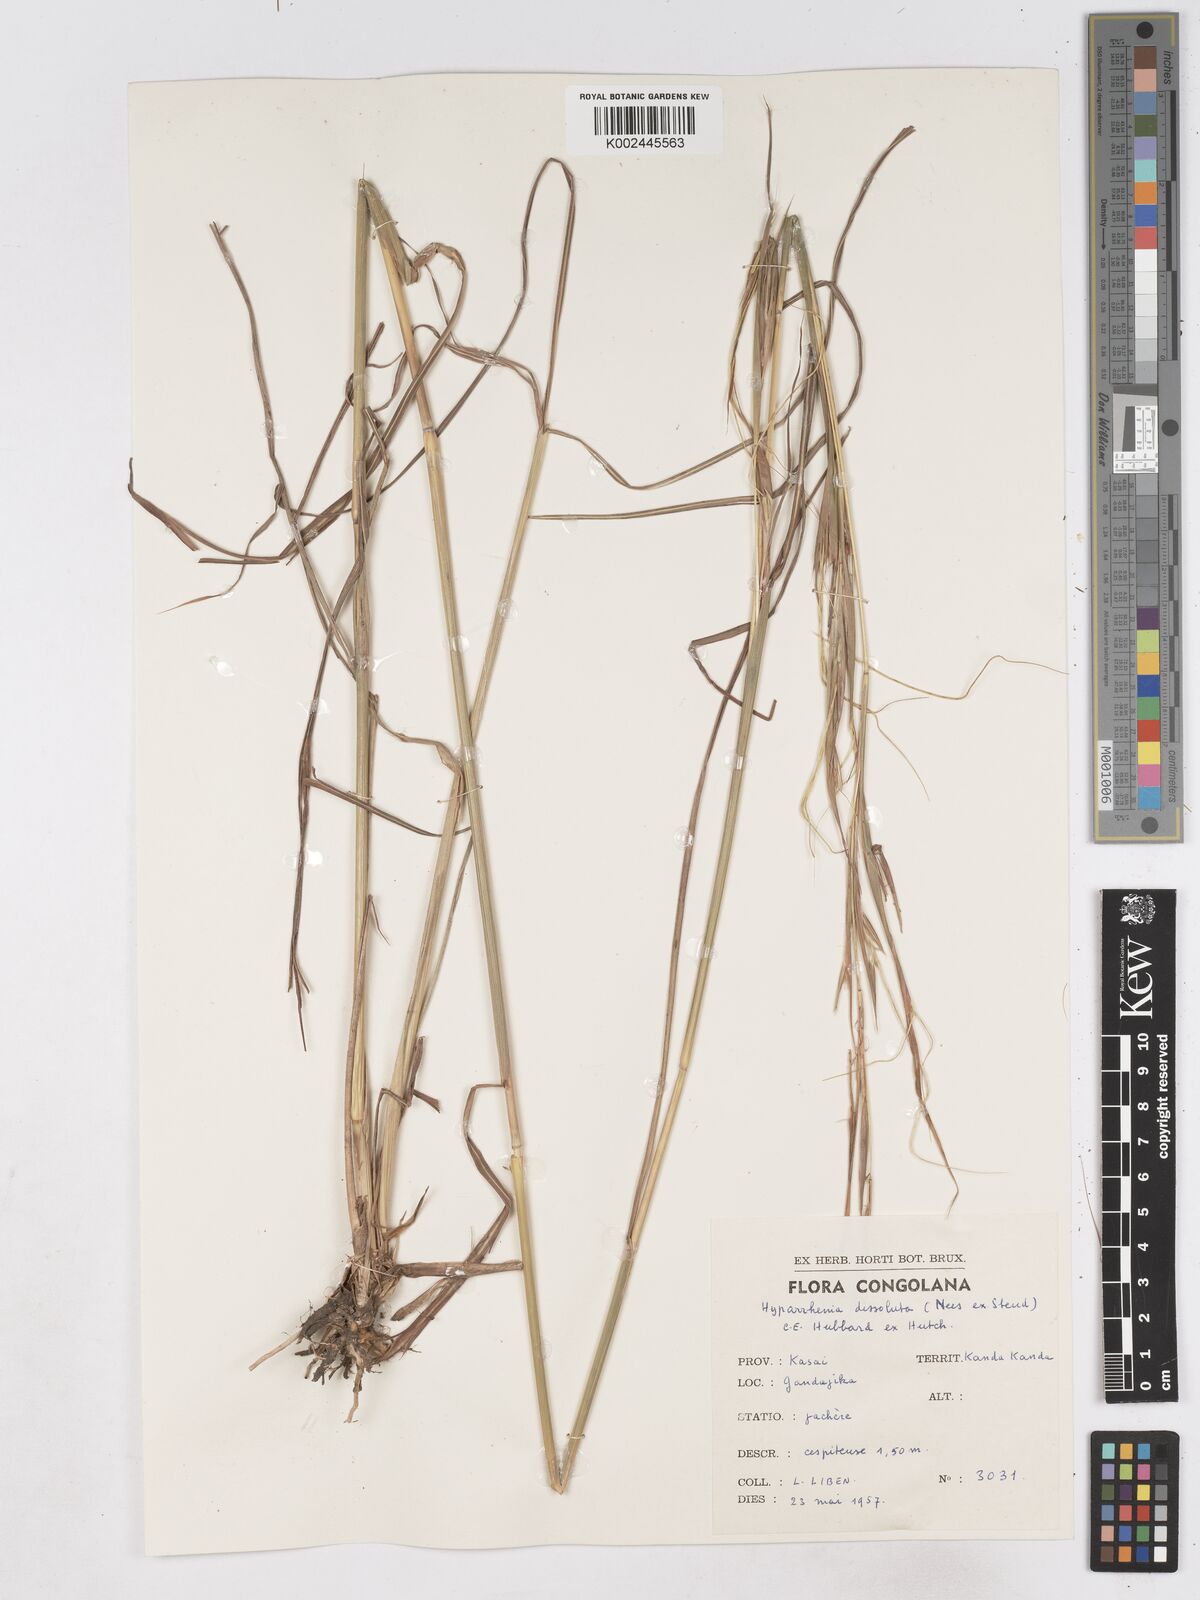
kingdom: Plantae
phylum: Tracheophyta
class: Liliopsida
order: Poales
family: Poaceae
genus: Hyperthelia
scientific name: Hyperthelia dissoluta
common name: Yellow thatching grass
